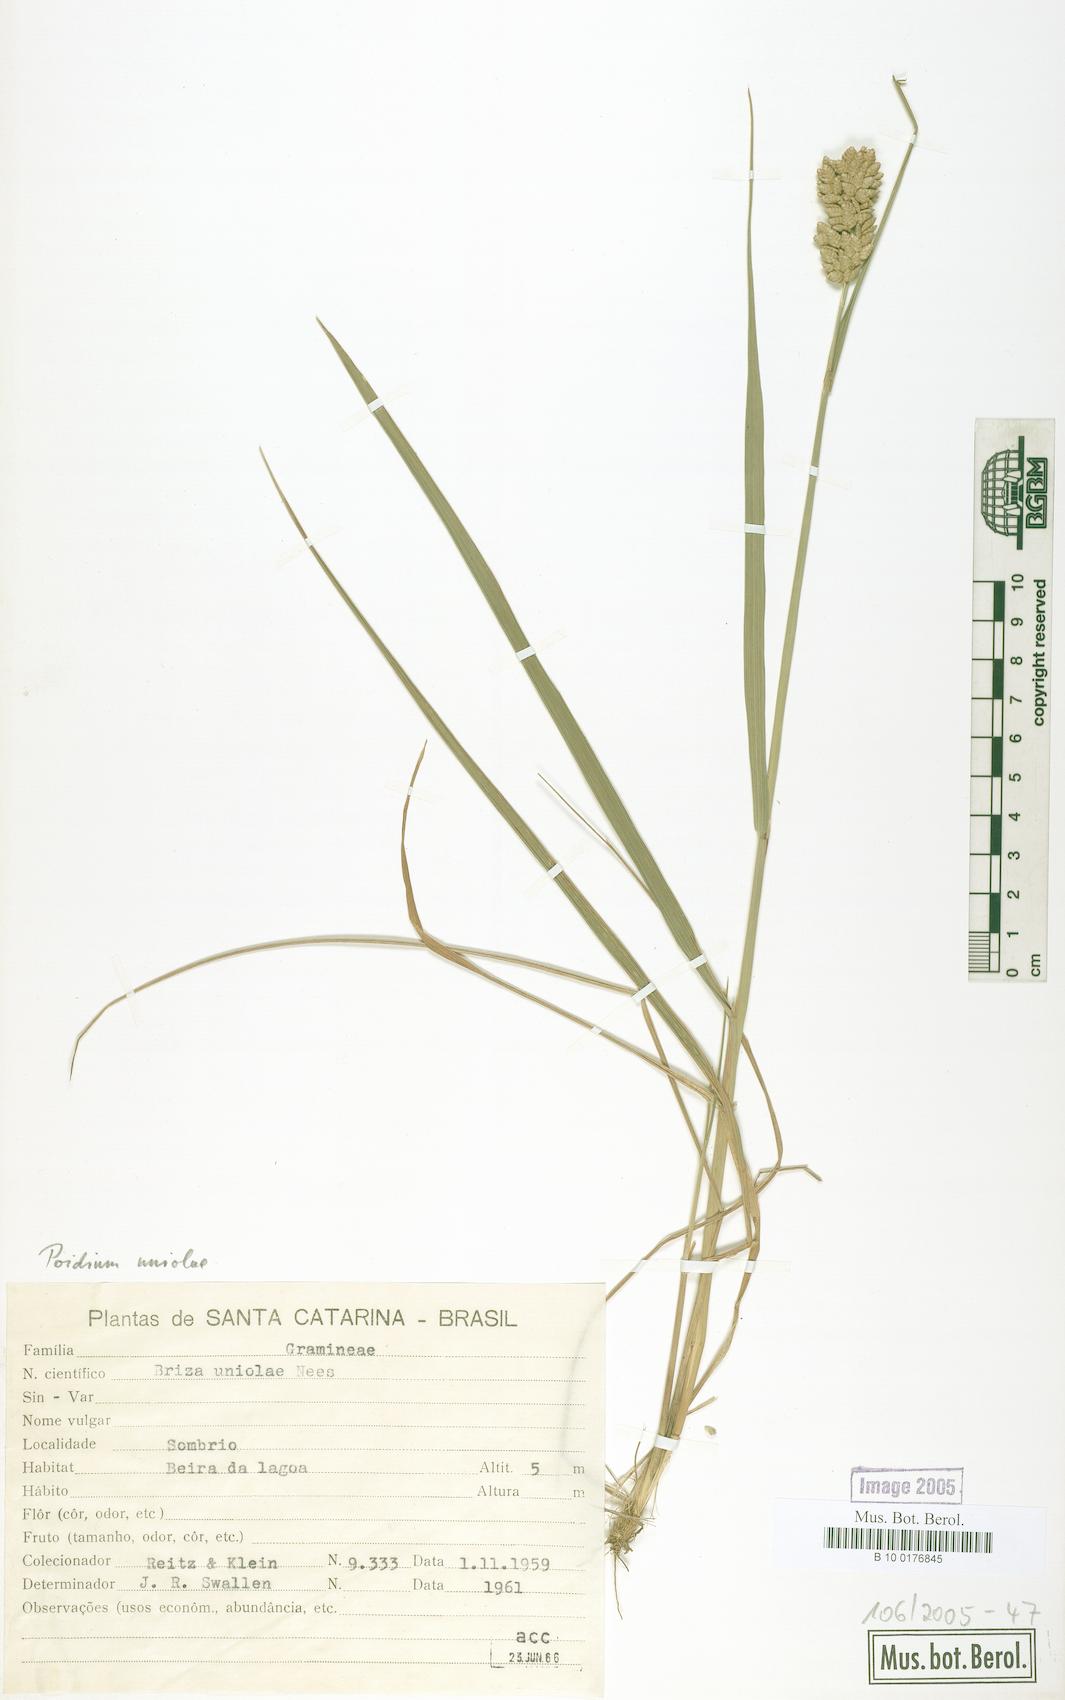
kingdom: Plantae
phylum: Tracheophyta
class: Liliopsida
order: Poales
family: Poaceae
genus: Poidium
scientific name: Poidium uniolae
